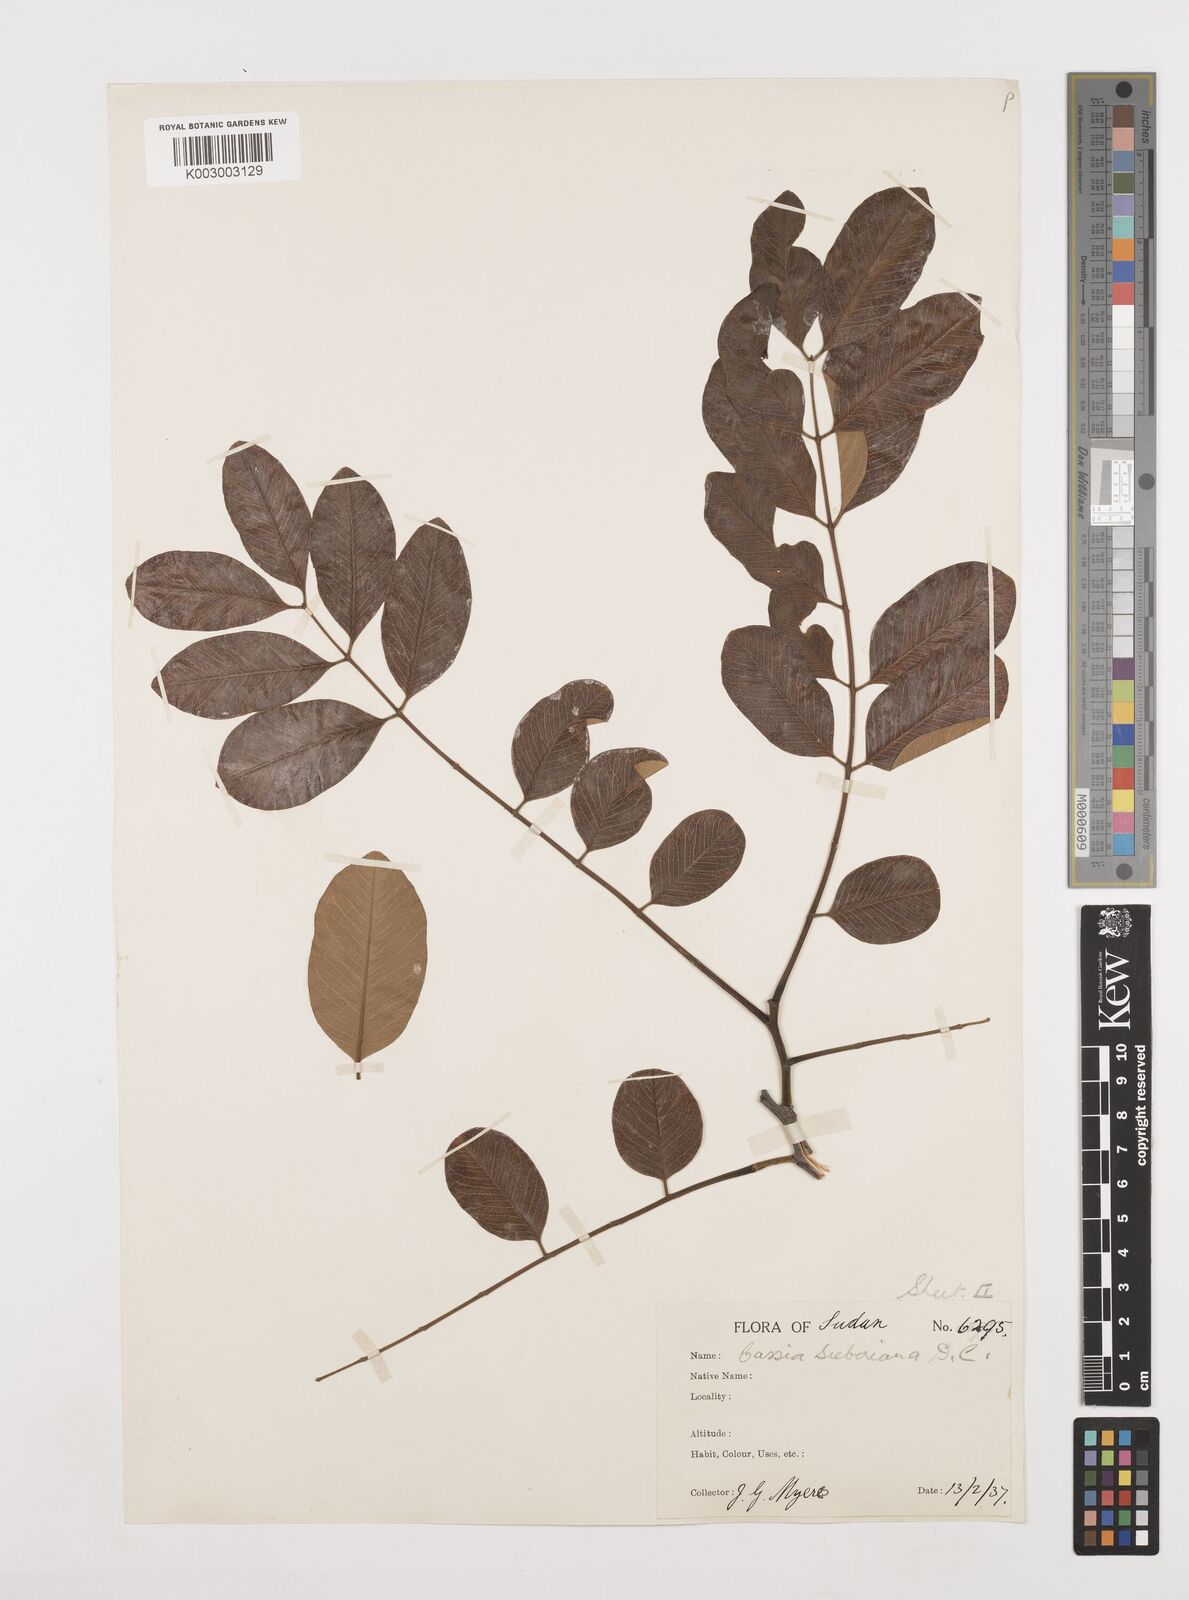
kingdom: Plantae
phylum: Tracheophyta
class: Magnoliopsida
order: Fabales
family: Fabaceae
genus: Cassia
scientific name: Cassia sieberiana
